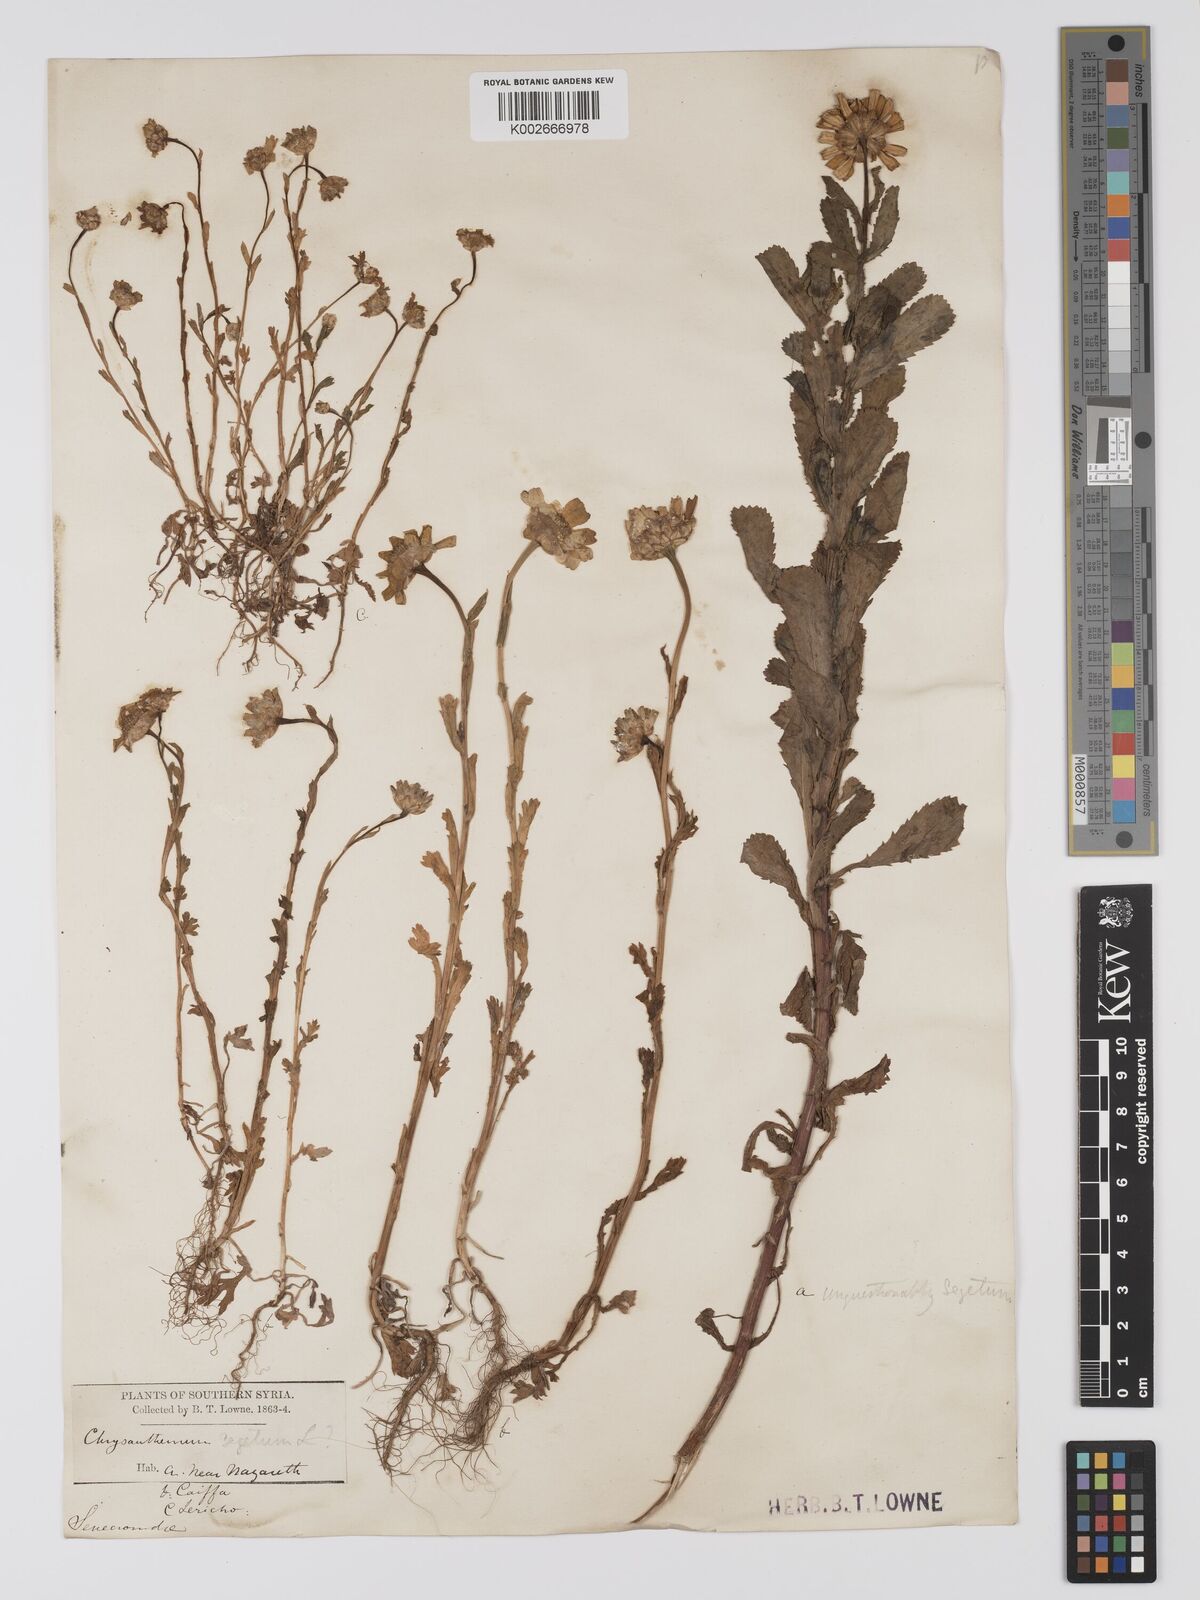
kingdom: Plantae
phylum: Tracheophyta
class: Magnoliopsida
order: Asterales
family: Asteraceae
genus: Glebionis
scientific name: Glebionis segetum
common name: Corndaisy
